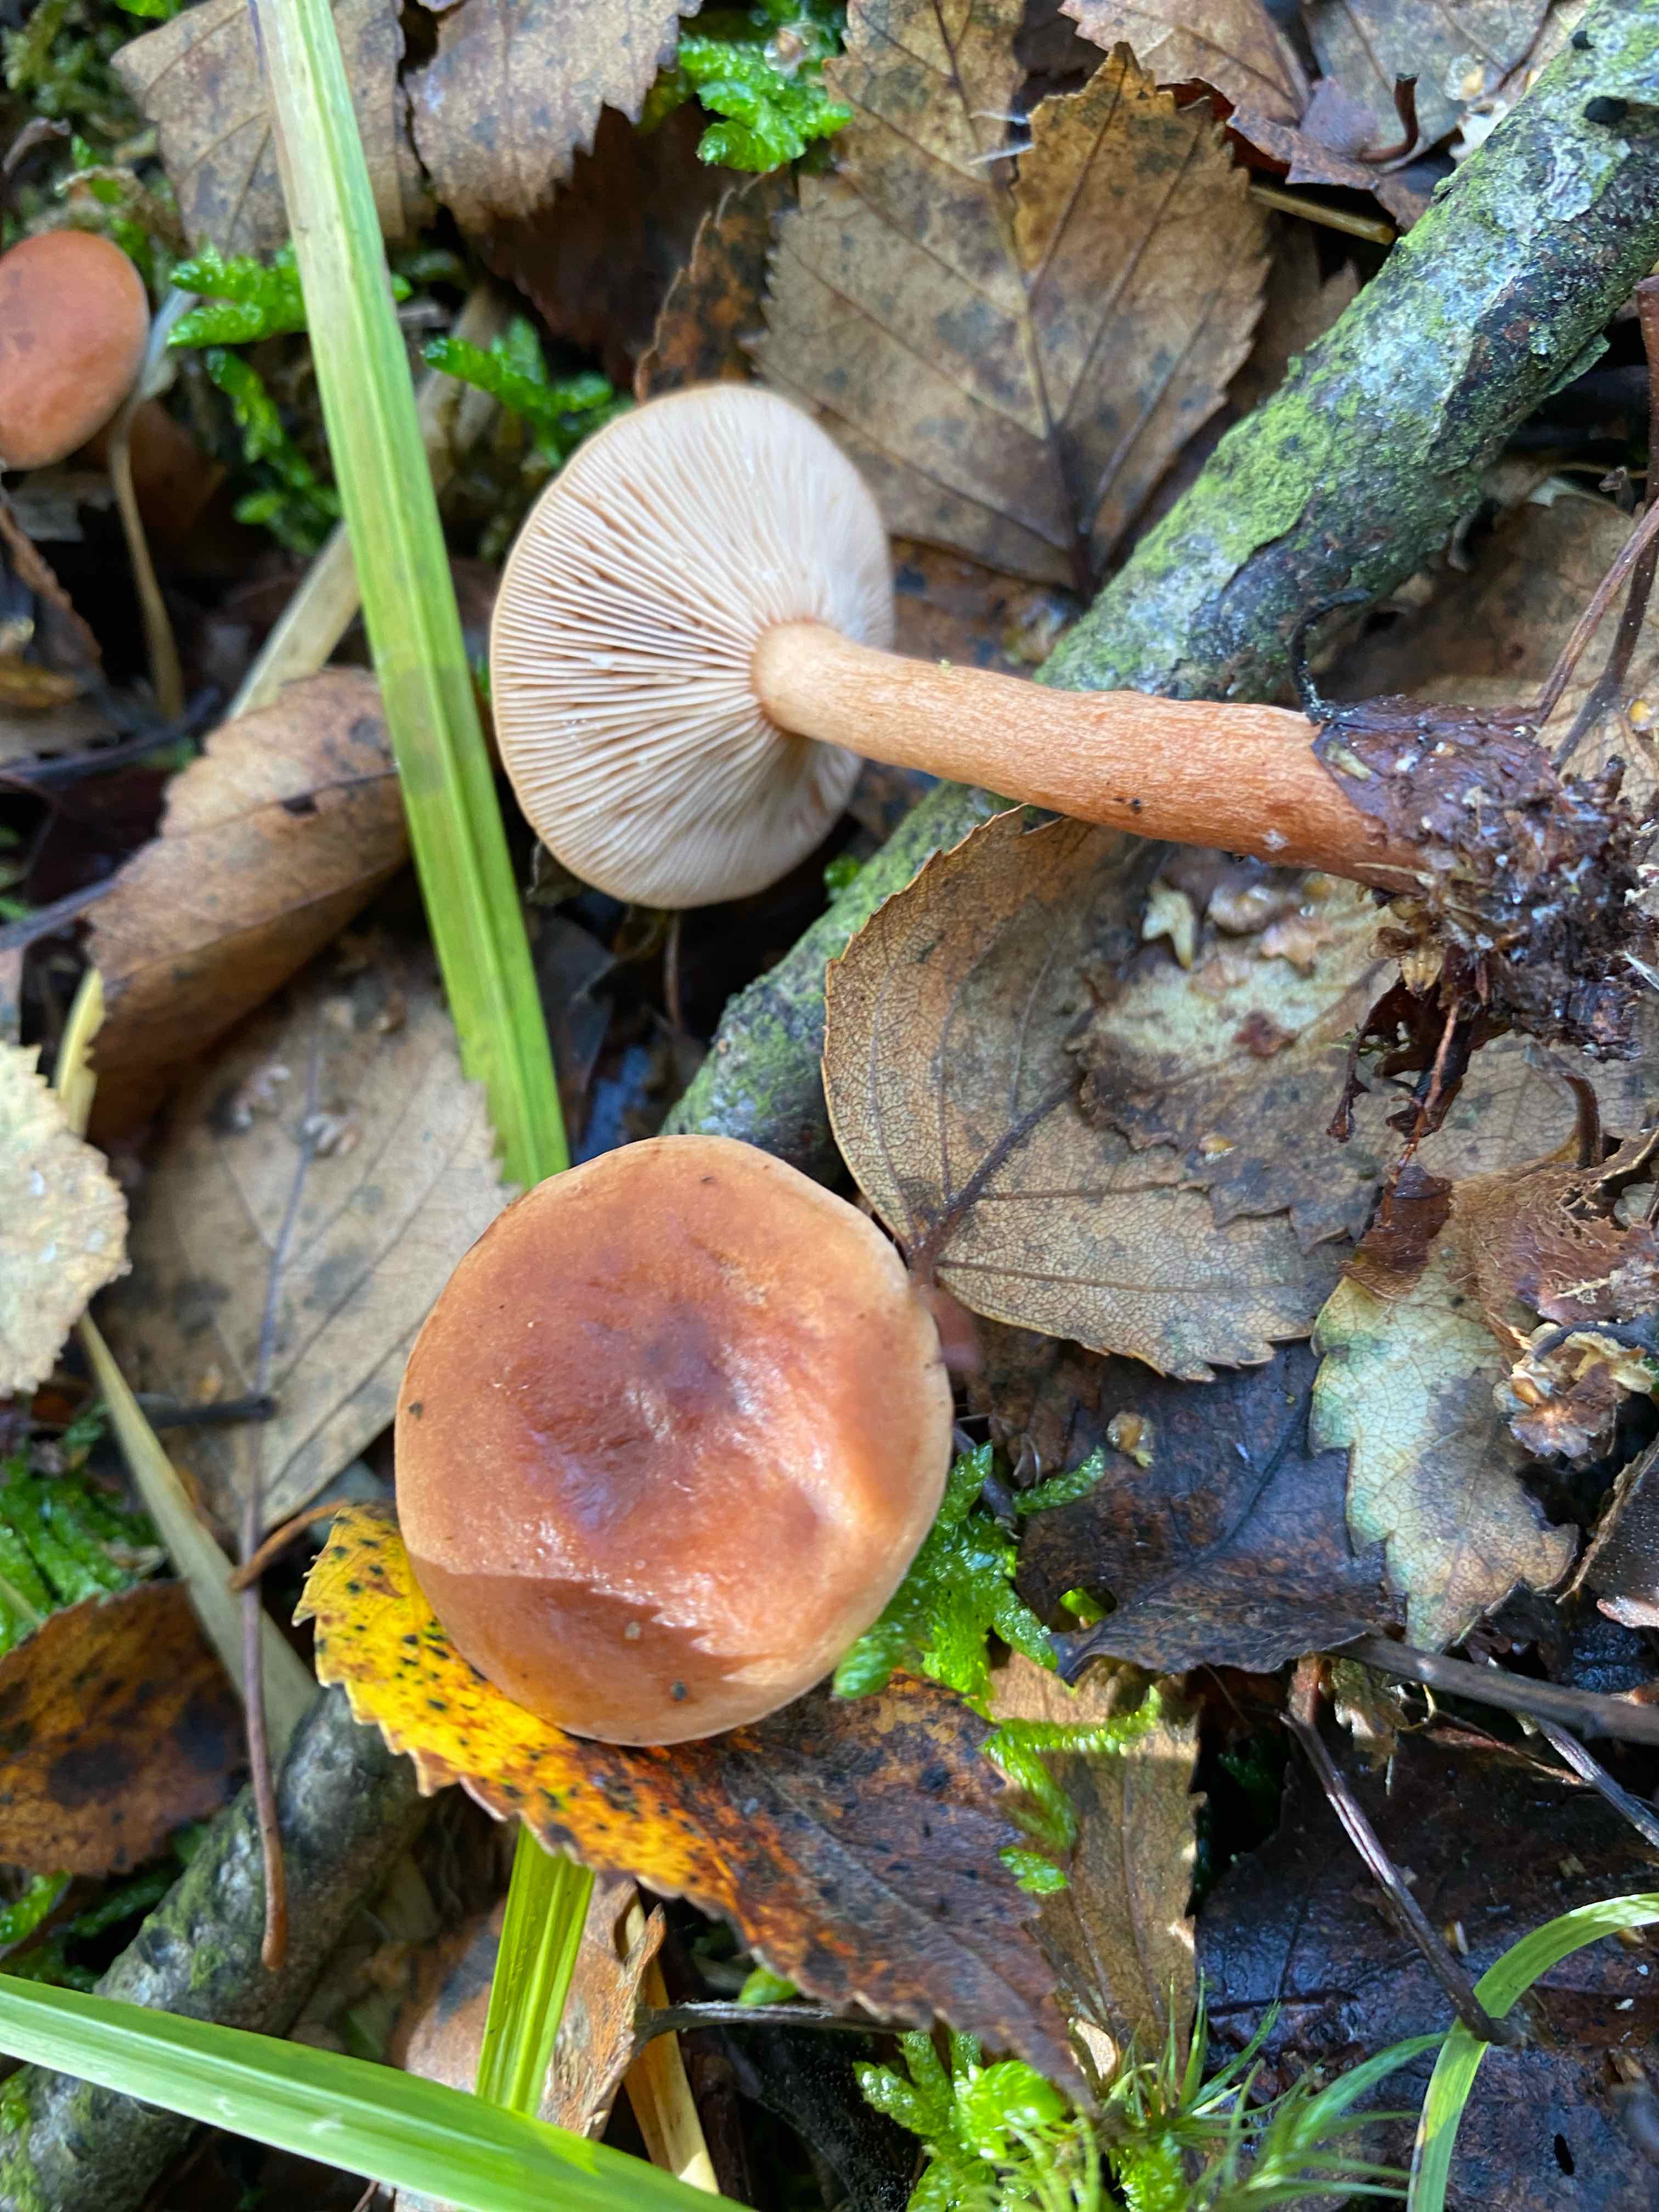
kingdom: Fungi
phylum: Basidiomycota
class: Agaricomycetes
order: Russulales
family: Russulaceae
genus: Lactarius
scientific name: Lactarius tabidus
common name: rynket mælkehat
